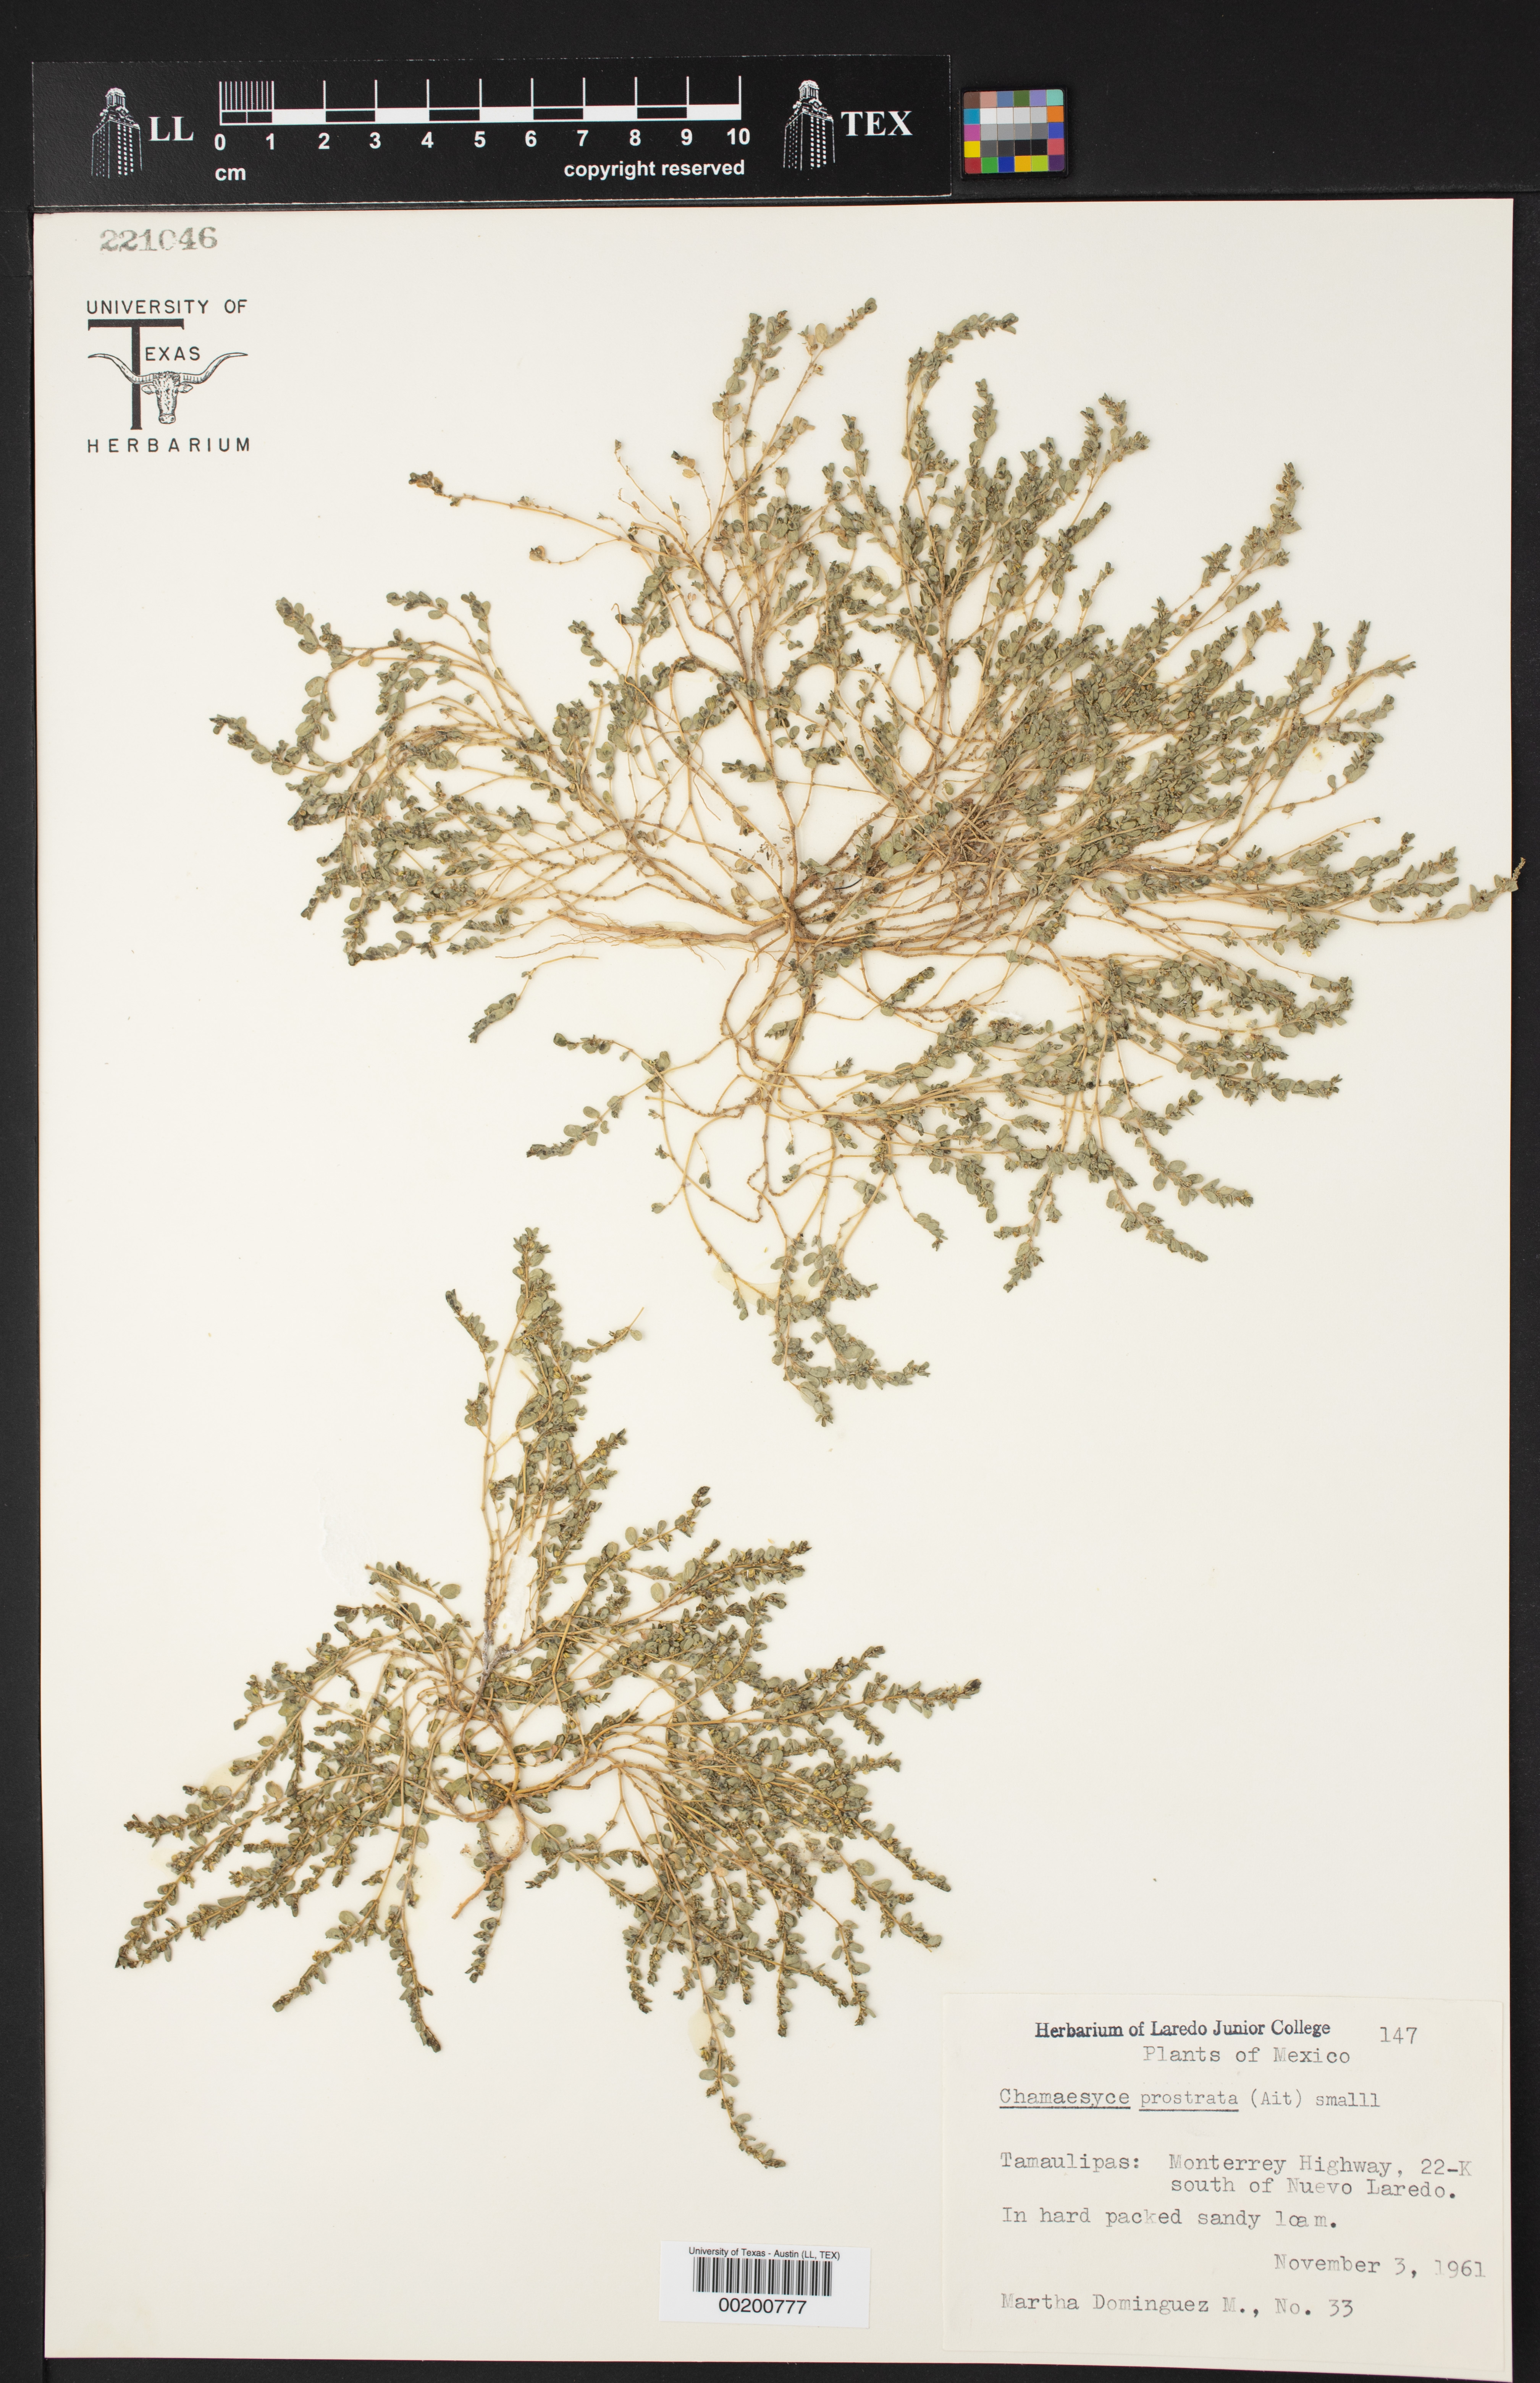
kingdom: Plantae
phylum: Tracheophyta
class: Magnoliopsida
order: Malpighiales
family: Euphorbiaceae
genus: Euphorbia
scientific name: Euphorbia prostrata
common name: Prostrate sandmat
